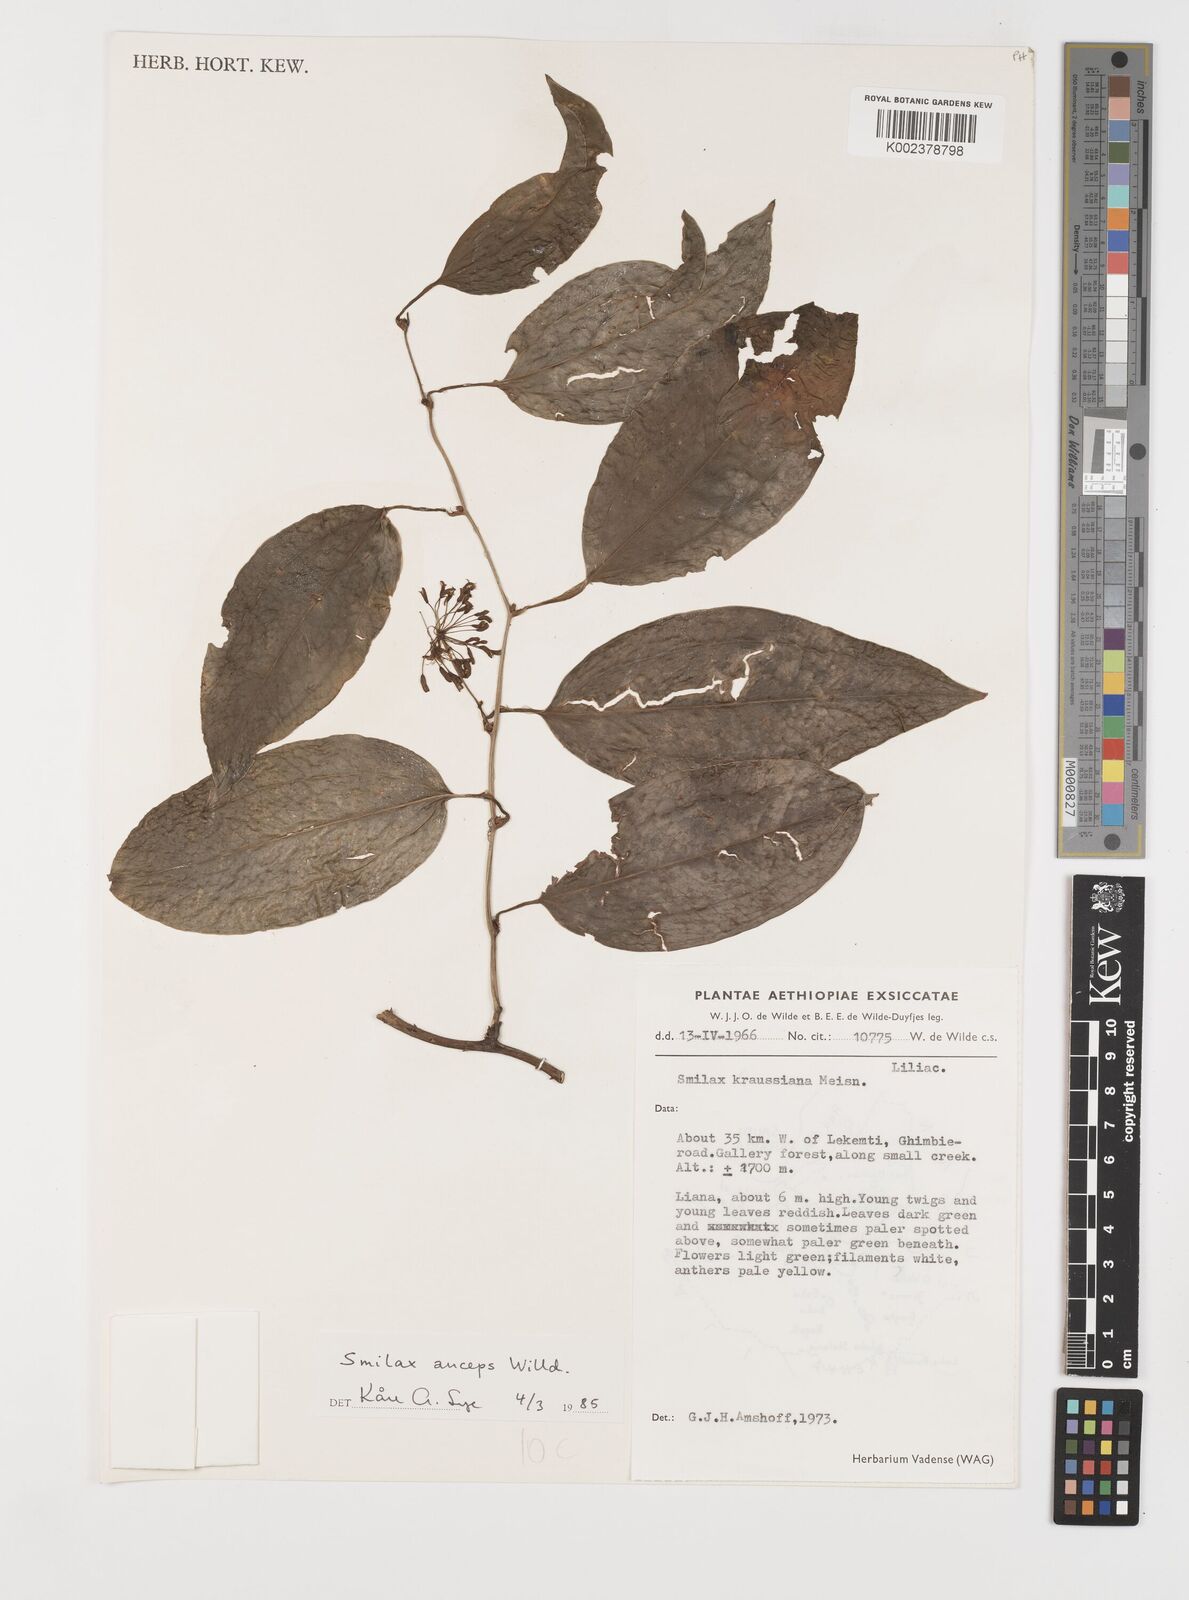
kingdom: Plantae
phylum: Tracheophyta
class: Liliopsida
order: Liliales
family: Smilacaceae
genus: Smilax
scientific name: Smilax anceps
